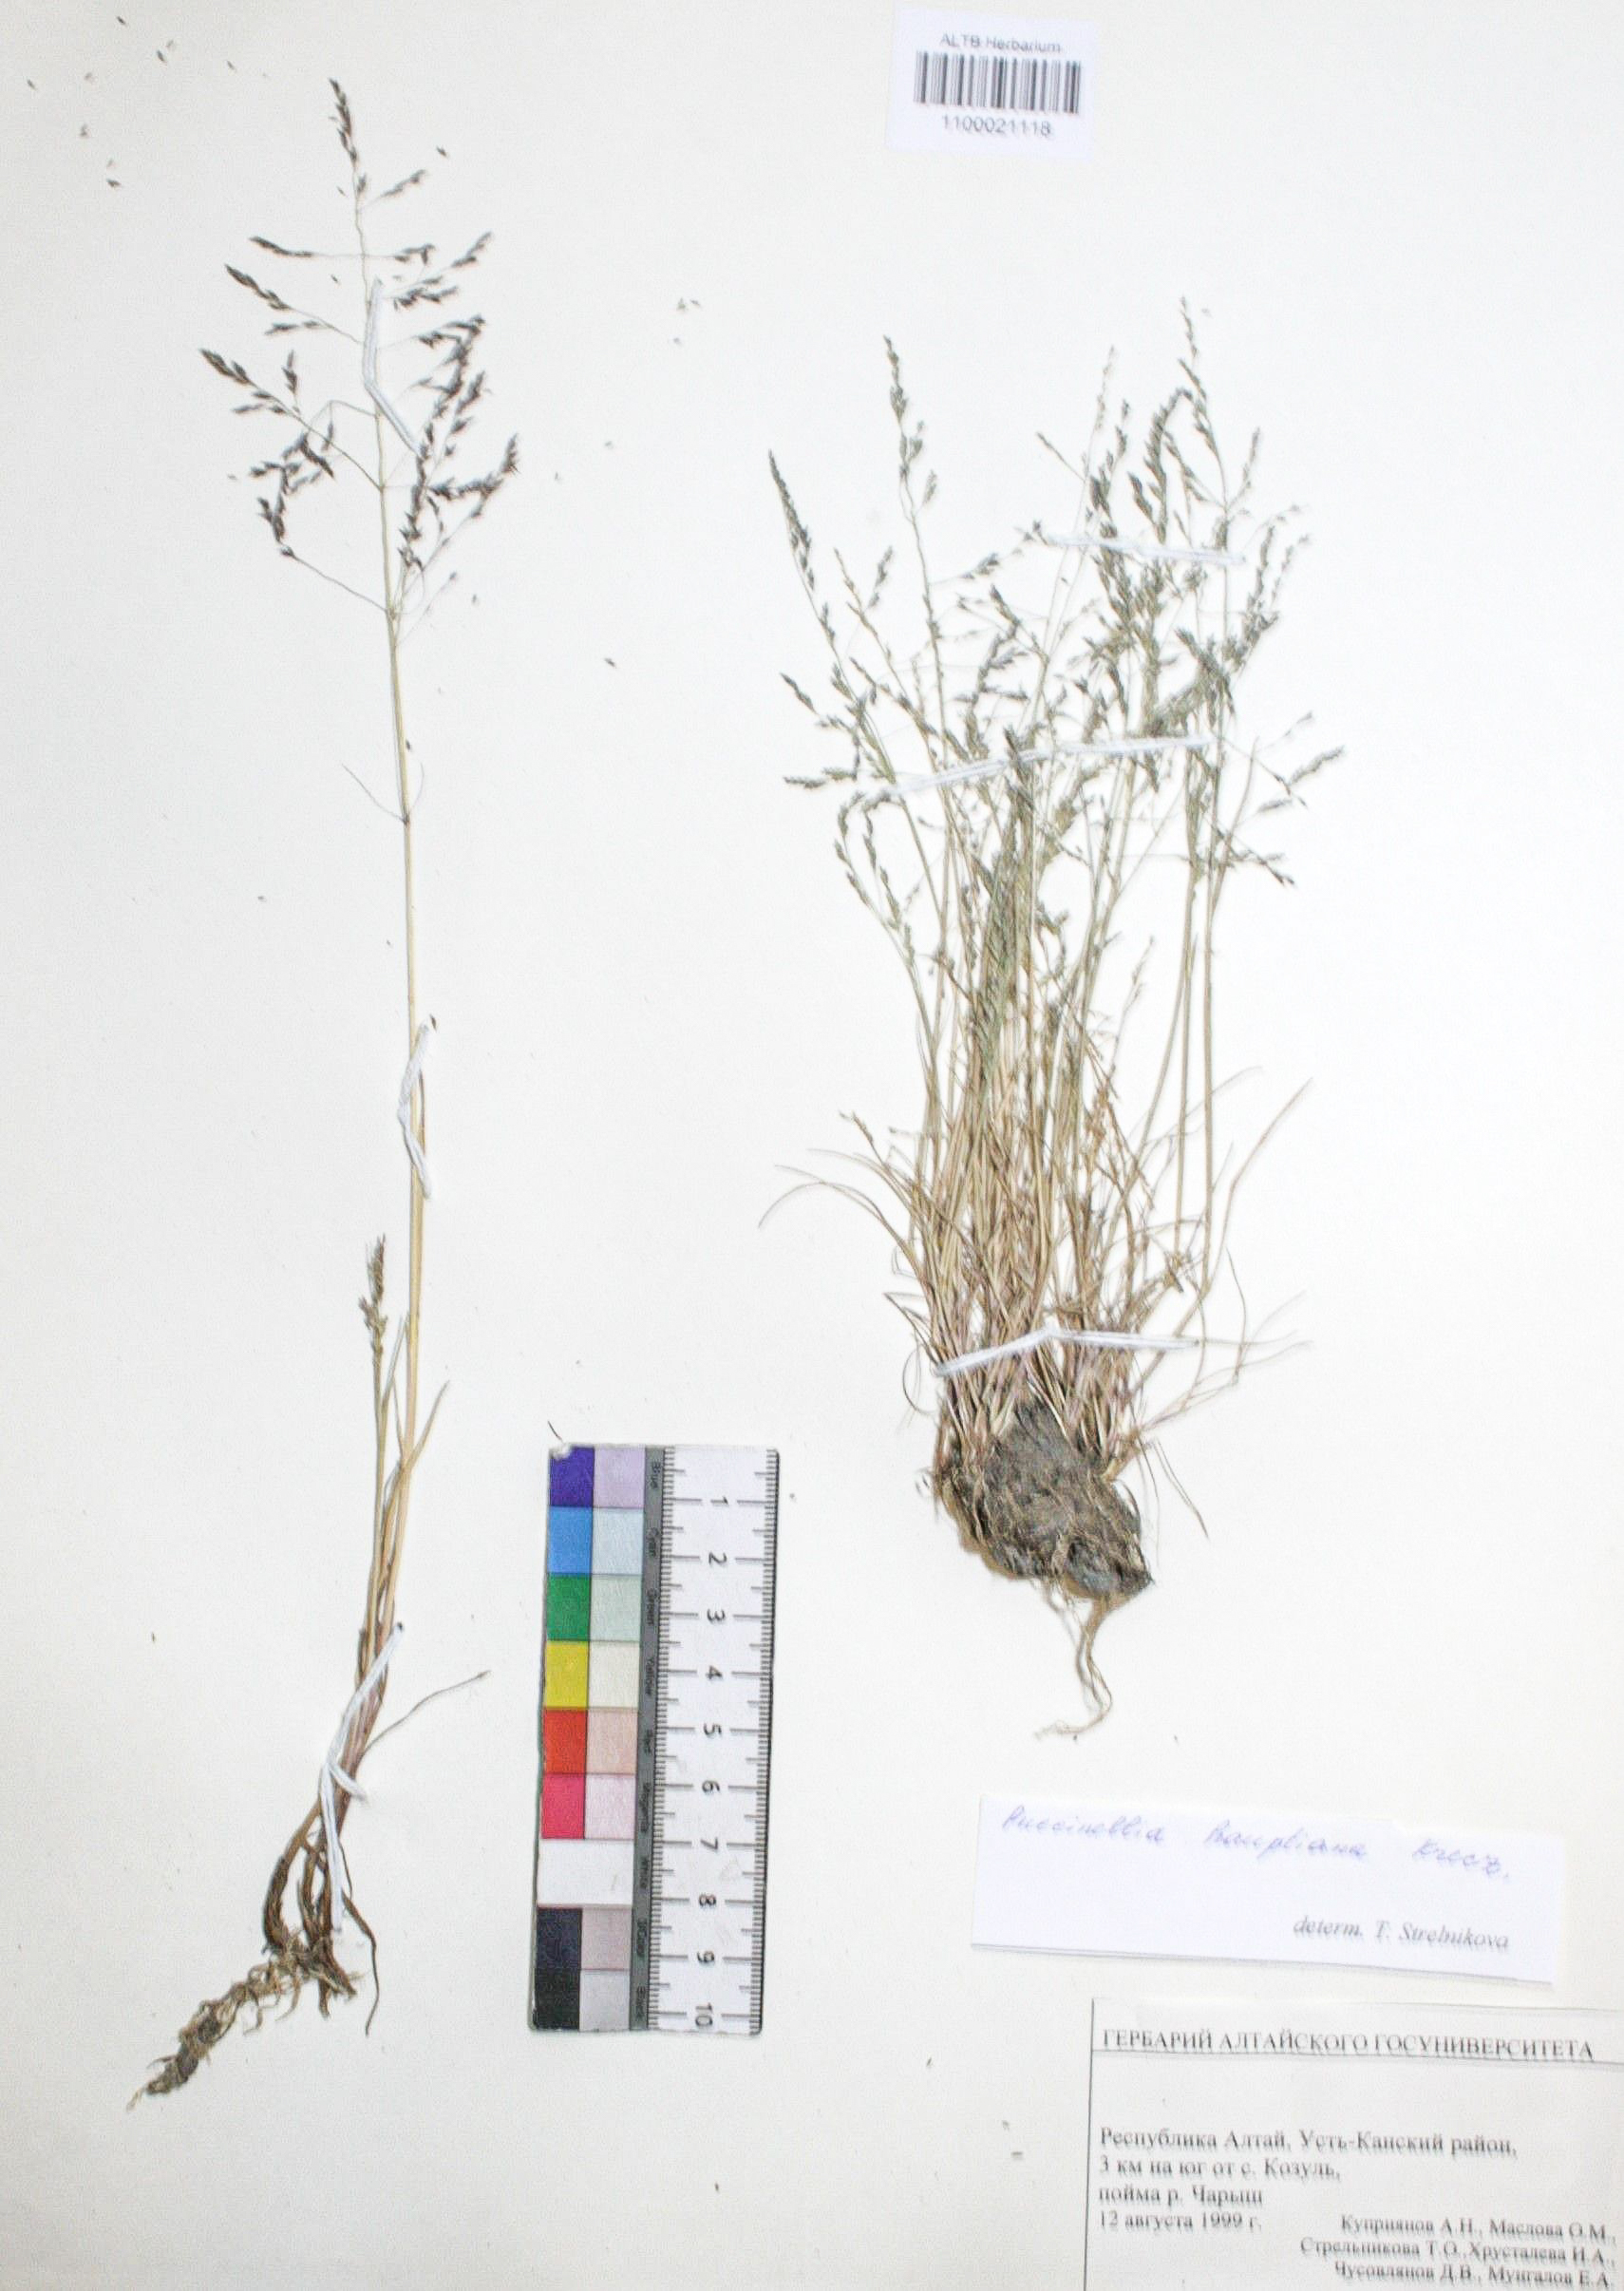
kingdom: Plantae
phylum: Tracheophyta
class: Liliopsida
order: Poales
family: Poaceae
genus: Puccinellia
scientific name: Puccinellia hauptiana
